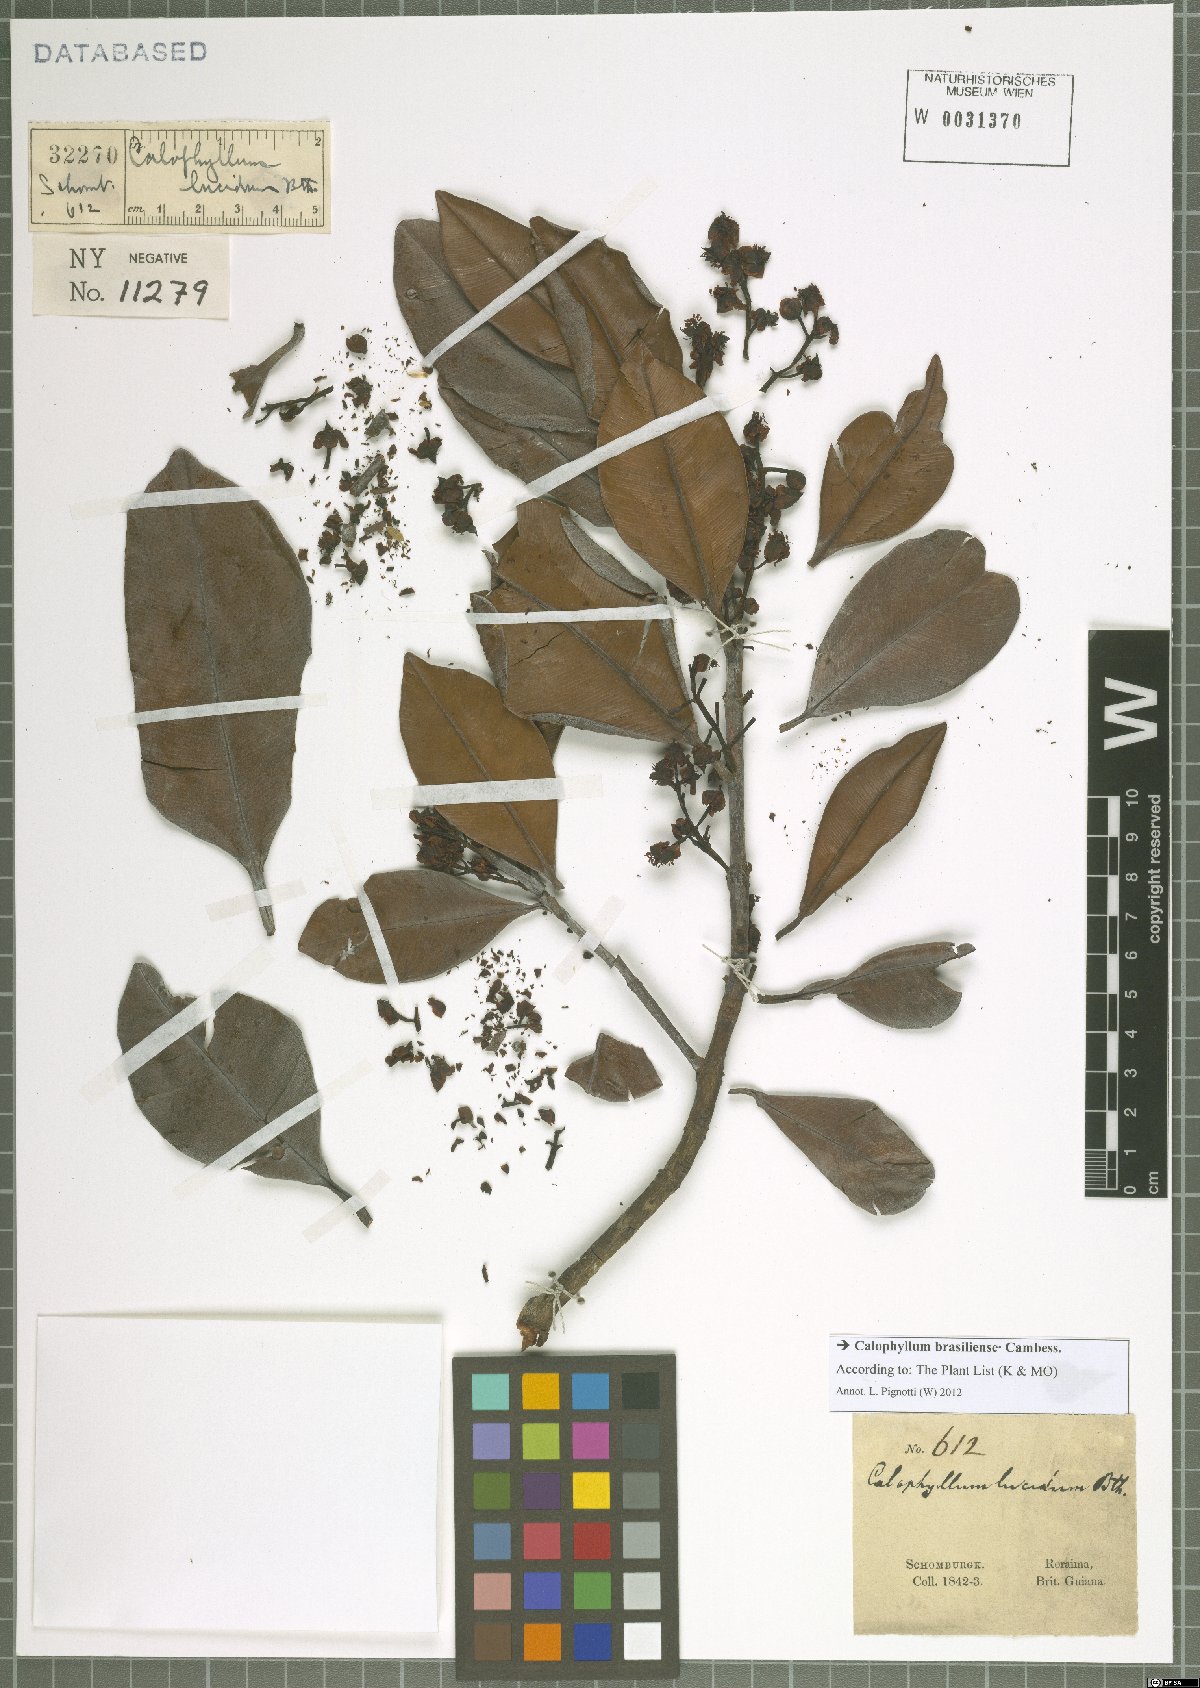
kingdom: Plantae
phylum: Tracheophyta
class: Magnoliopsida
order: Malpighiales
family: Calophyllaceae
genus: Calophyllum
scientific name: Calophyllum brasiliense
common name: Santa maria
